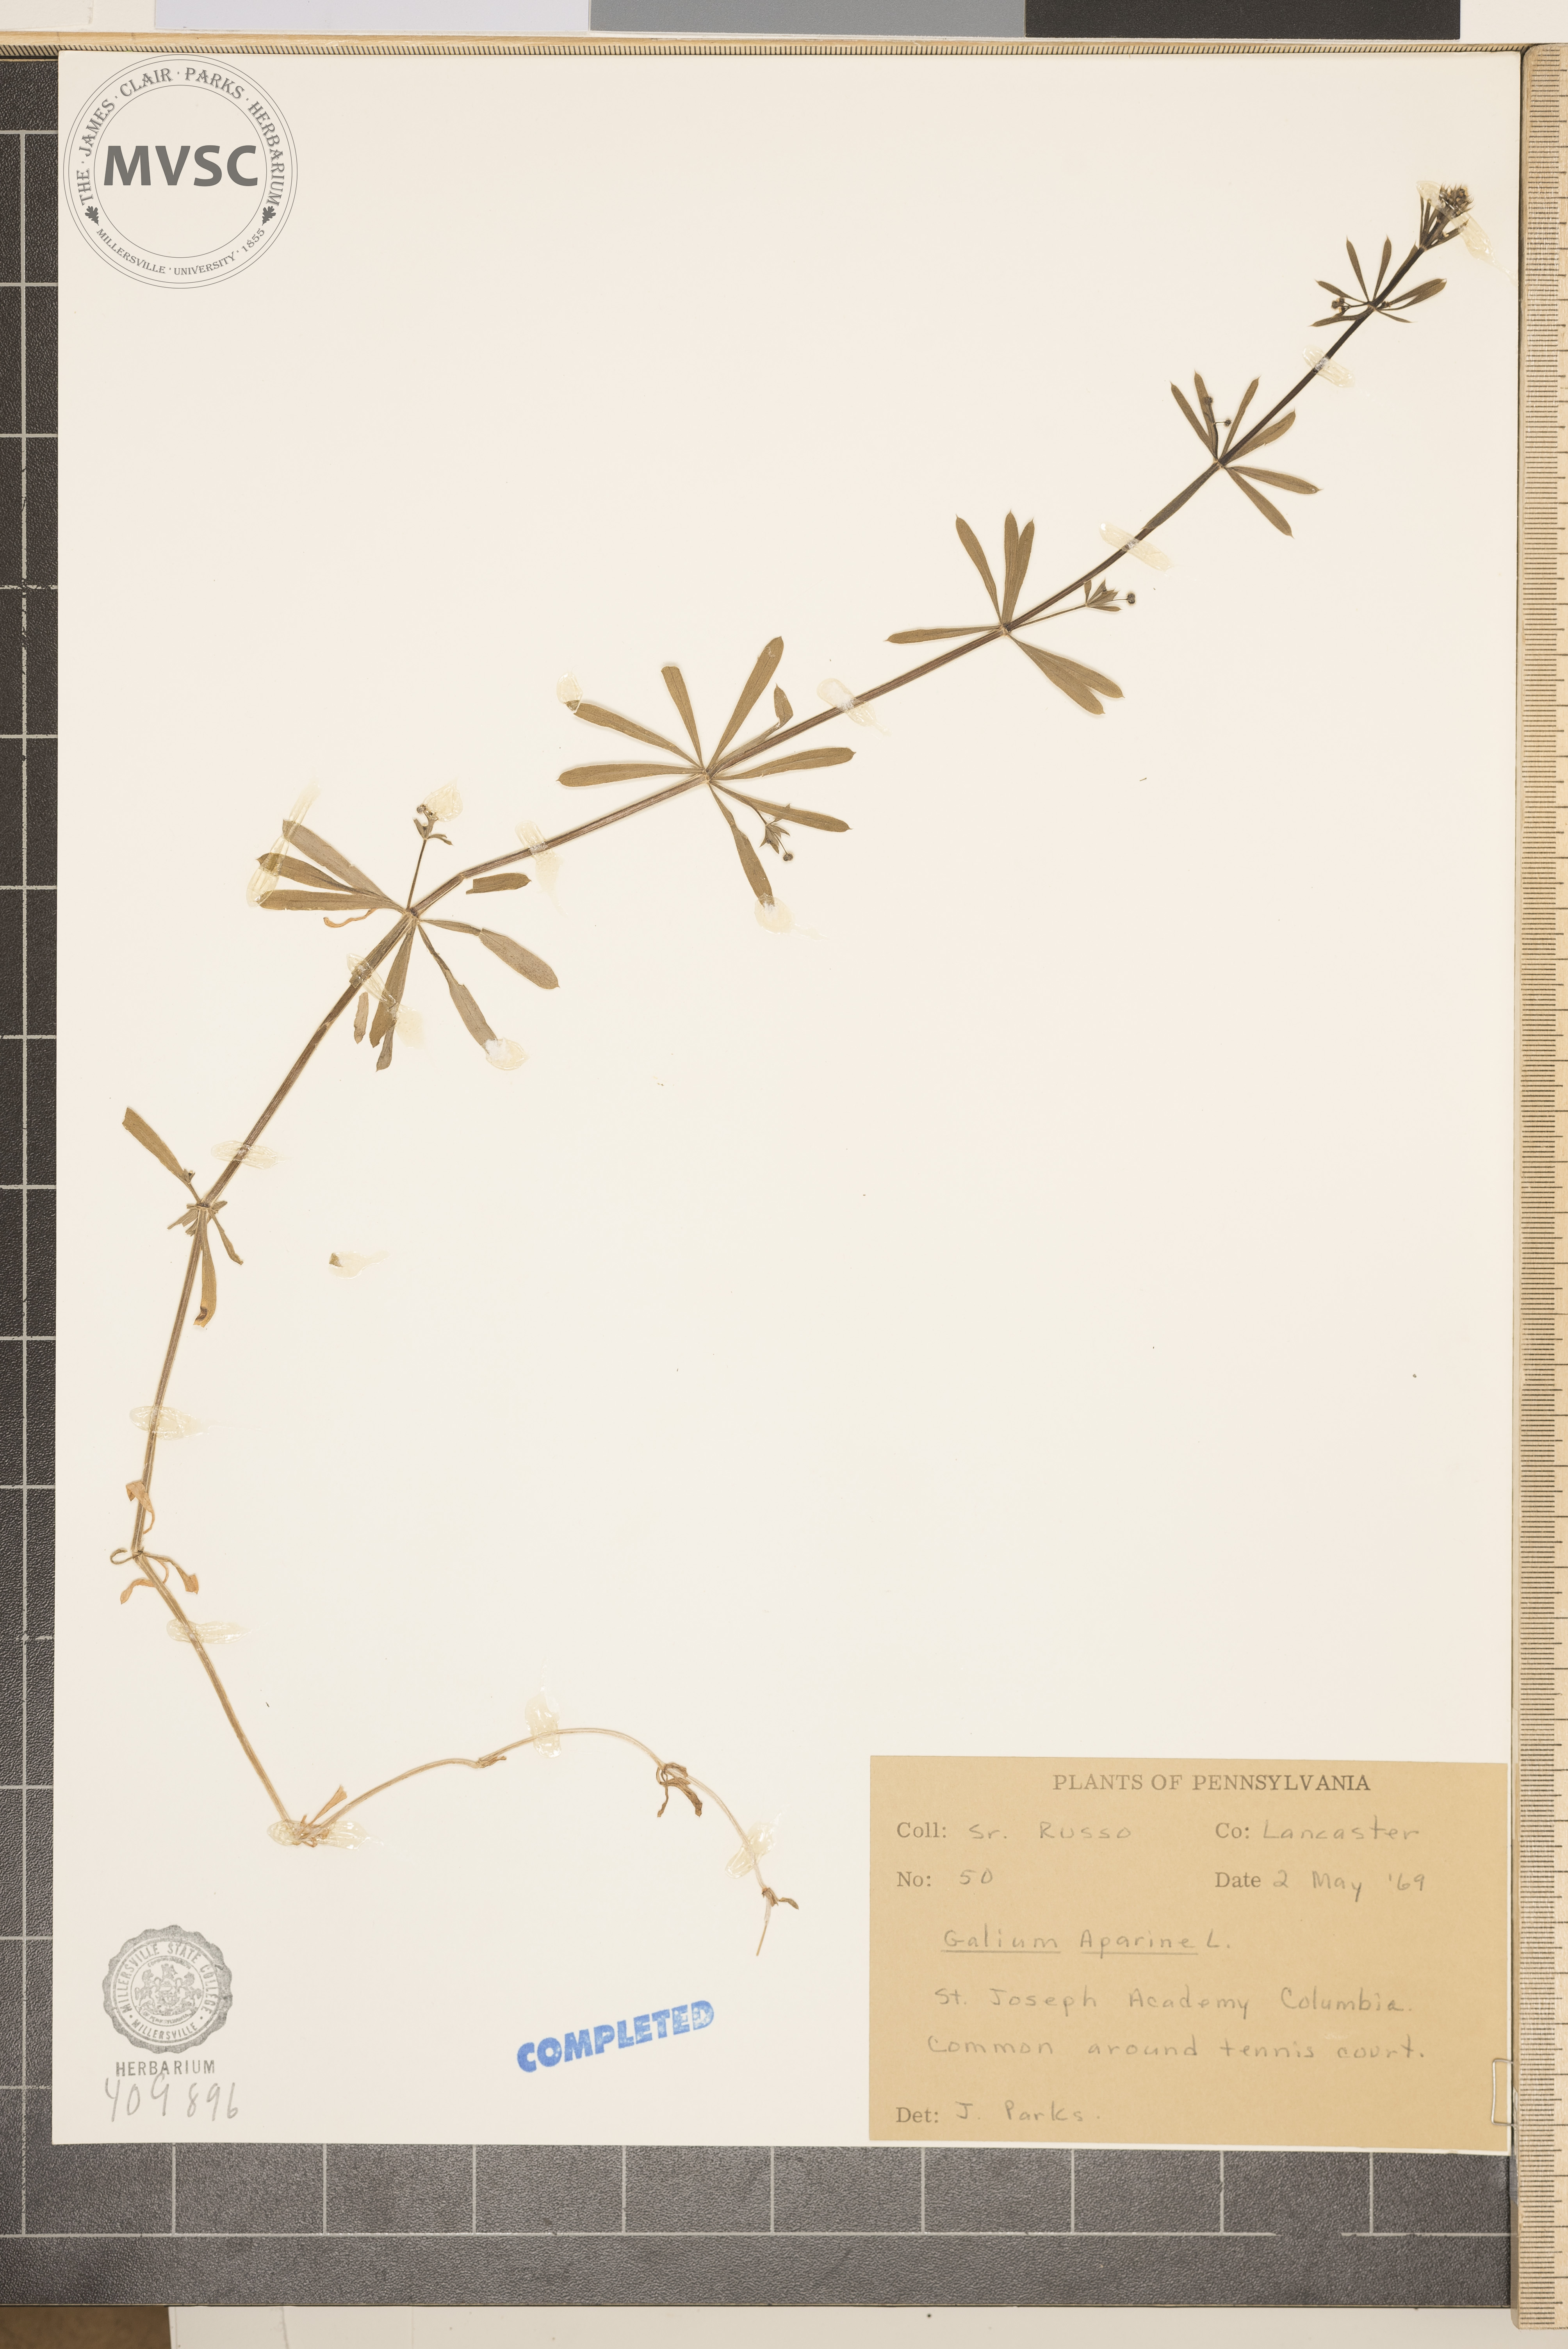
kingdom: Plantae
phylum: Tracheophyta
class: Magnoliopsida
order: Gentianales
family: Rubiaceae
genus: Galium
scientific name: Galium aparine
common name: Cleavers
